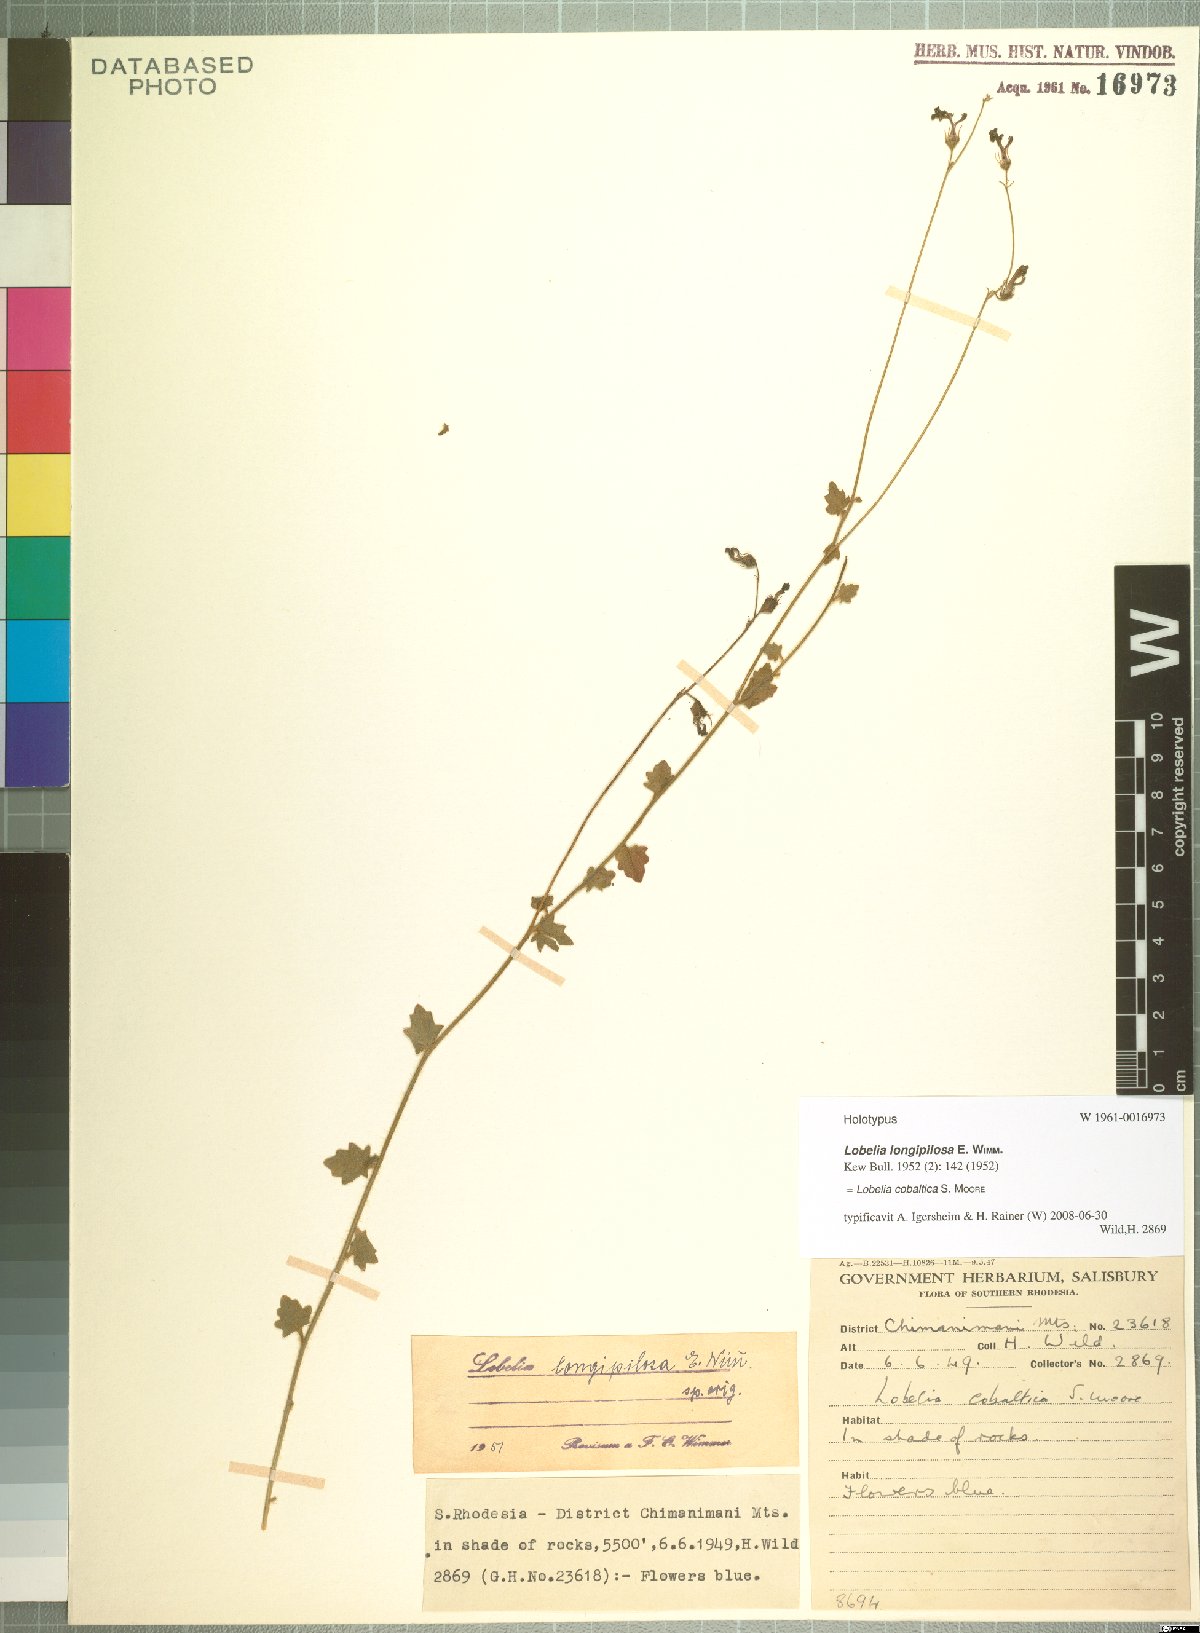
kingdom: Plantae
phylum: Tracheophyta
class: Magnoliopsida
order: Asterales
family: Campanulaceae
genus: Lobelia
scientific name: Lobelia cobaltica
